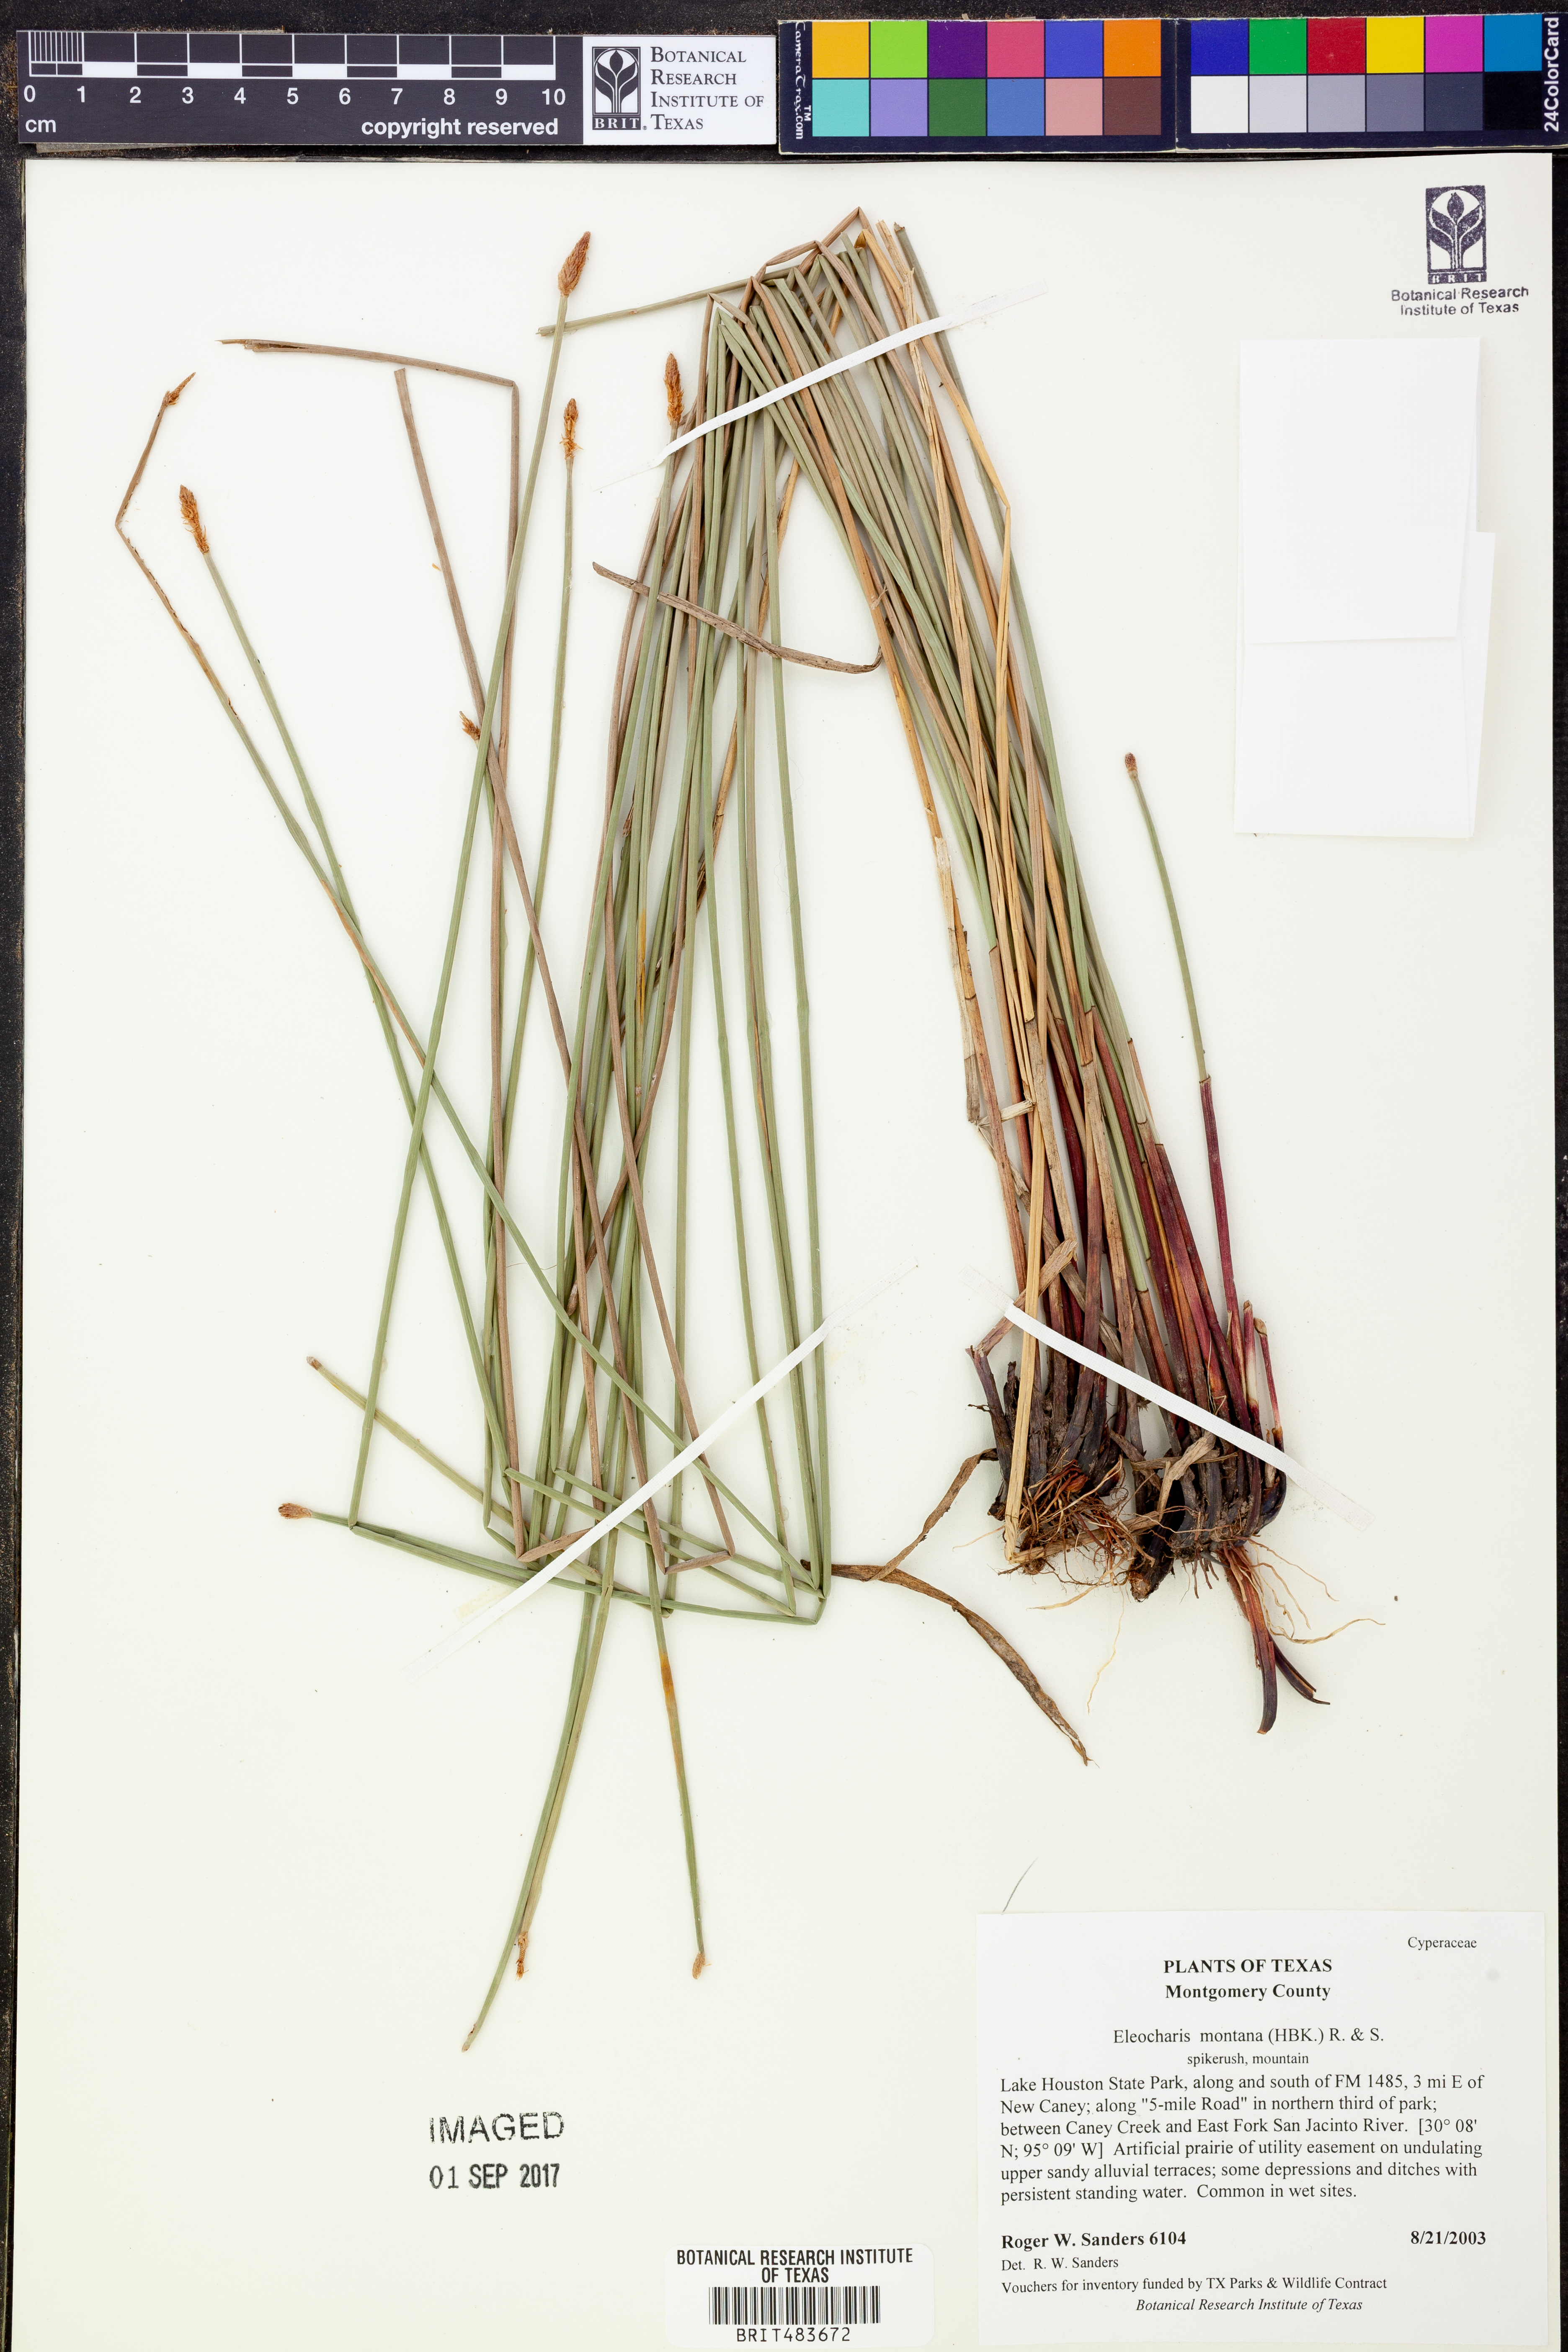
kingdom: Plantae
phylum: Tracheophyta
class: Liliopsida
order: Poales
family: Cyperaceae
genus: Eleocharis
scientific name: Eleocharis montana
